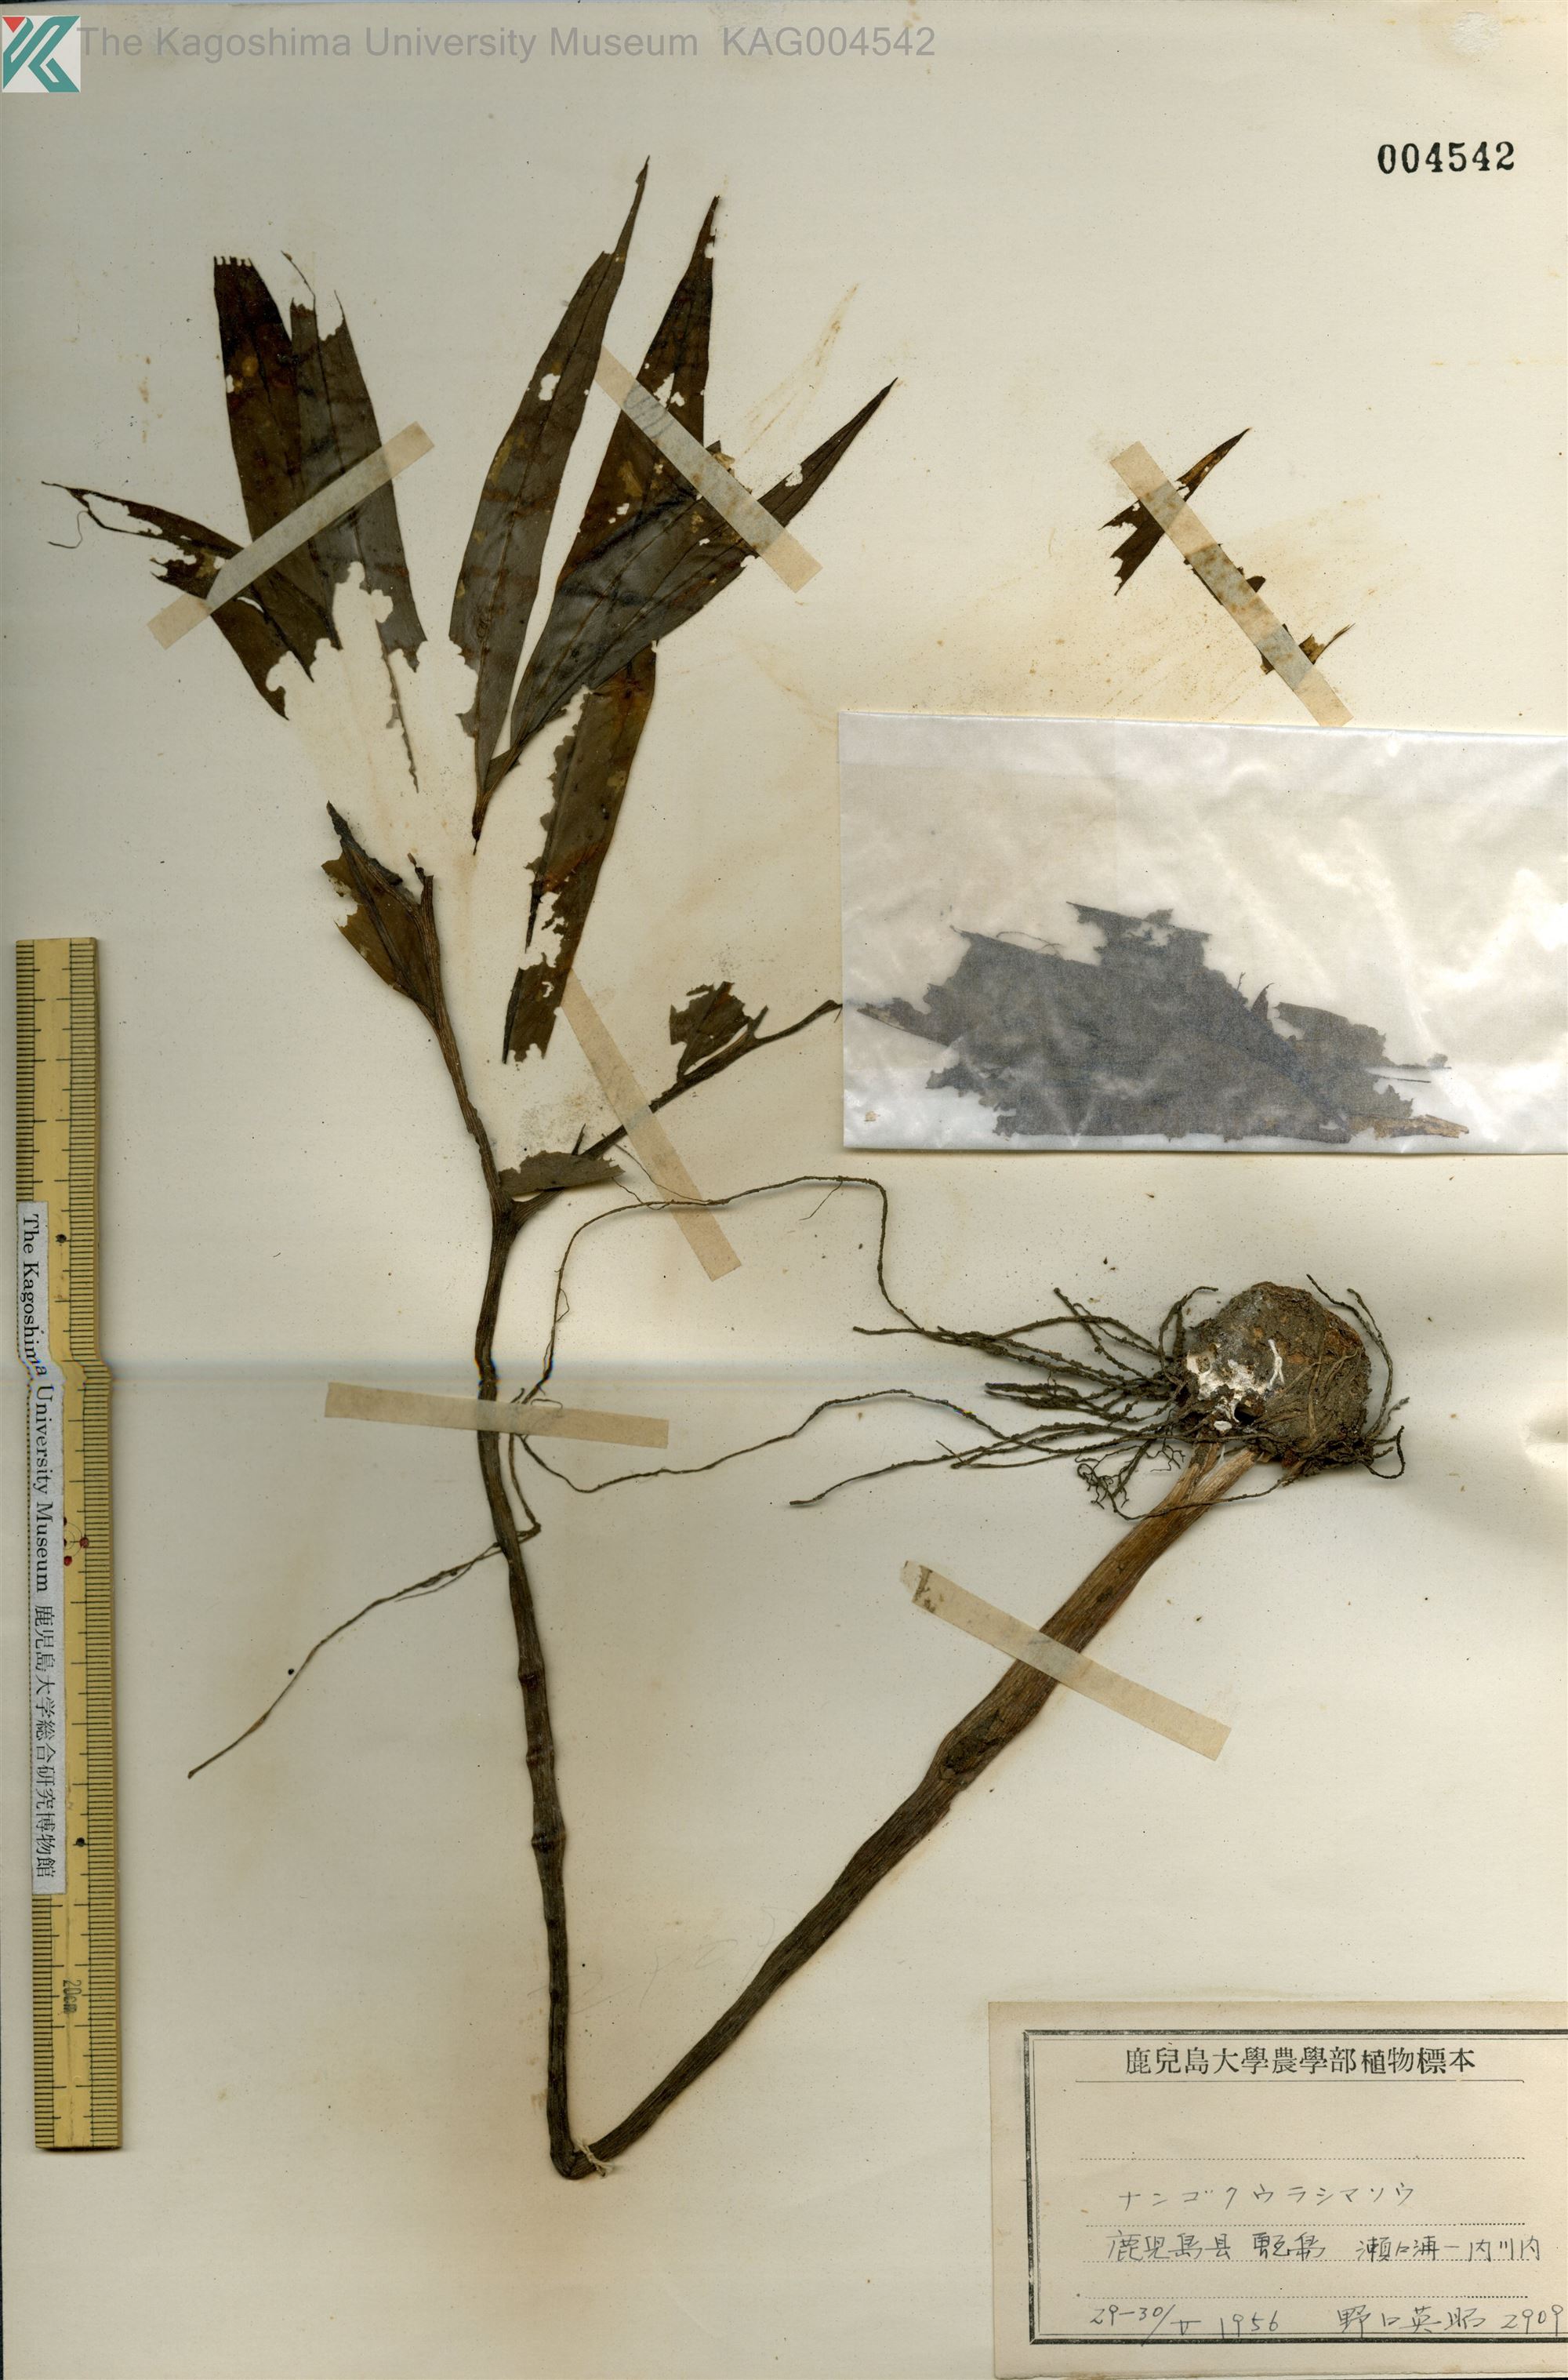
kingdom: Plantae
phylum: Tracheophyta
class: Liliopsida
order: Alismatales
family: Araceae
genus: Arisaema
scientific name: Arisaema thunbergii
